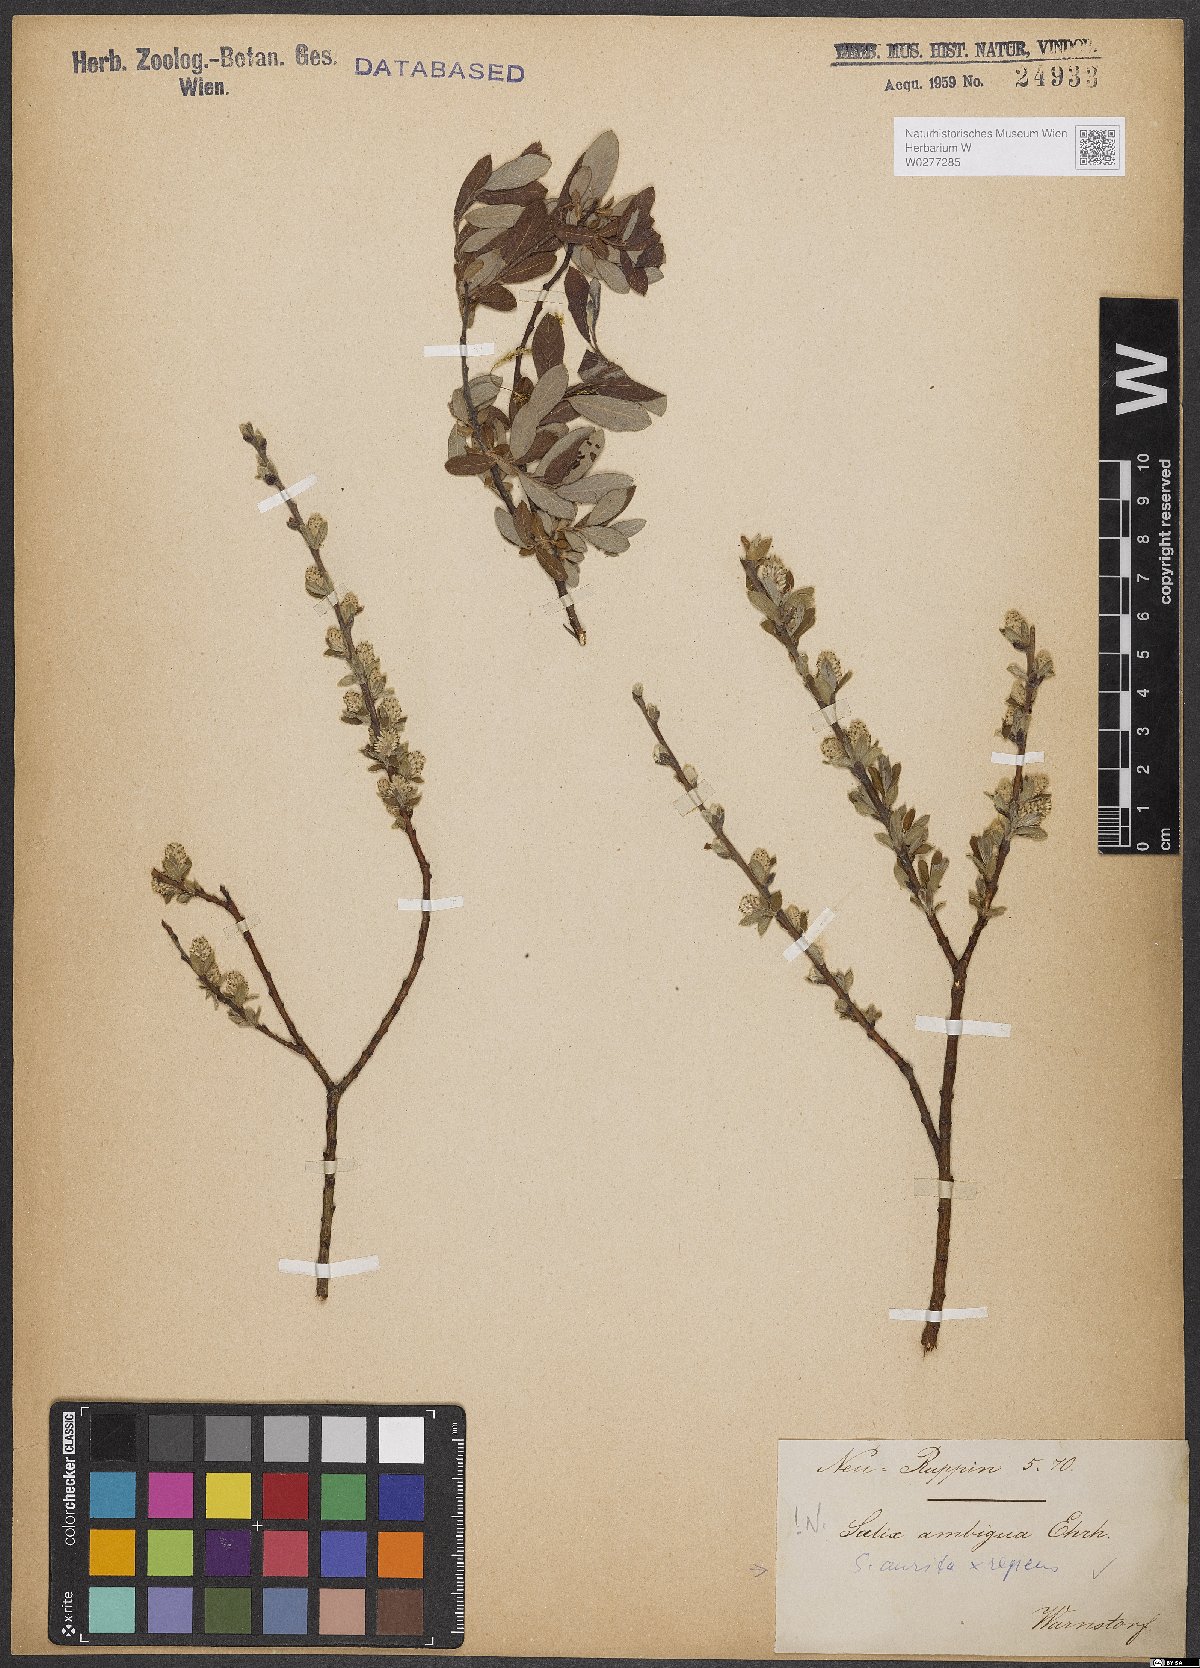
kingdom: Plantae
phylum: Tracheophyta
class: Magnoliopsida
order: Malpighiales
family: Salicaceae
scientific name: Salicaceae
